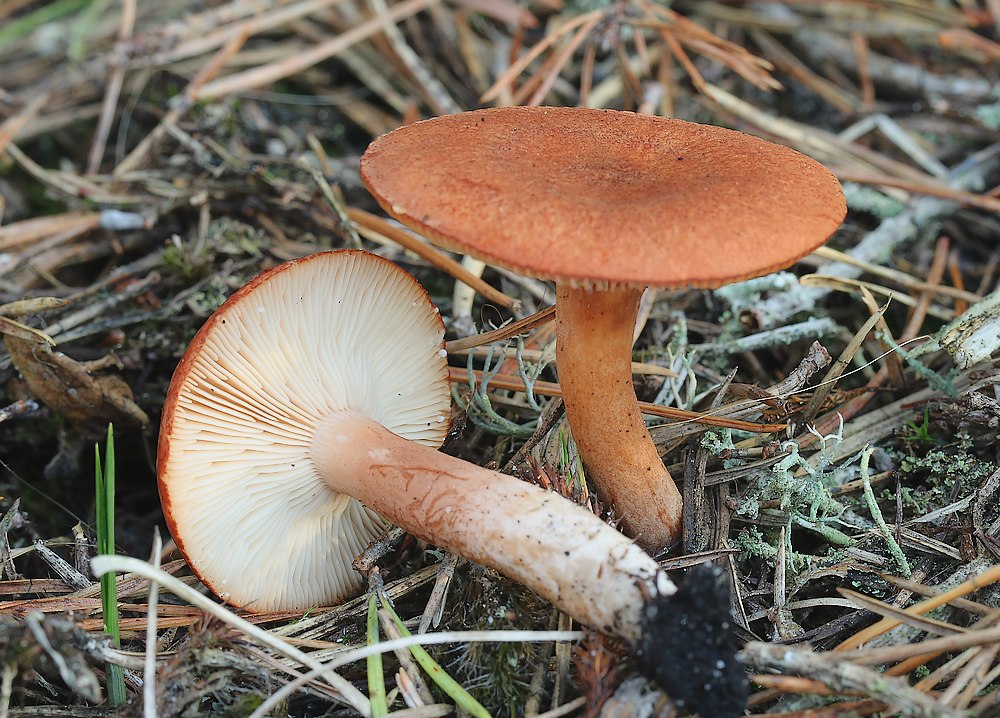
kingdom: Fungi
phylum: Basidiomycota
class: Agaricomycetes
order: Russulales
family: Russulaceae
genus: Lactarius
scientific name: Lactarius rufus
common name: rødbrun mælkehat
